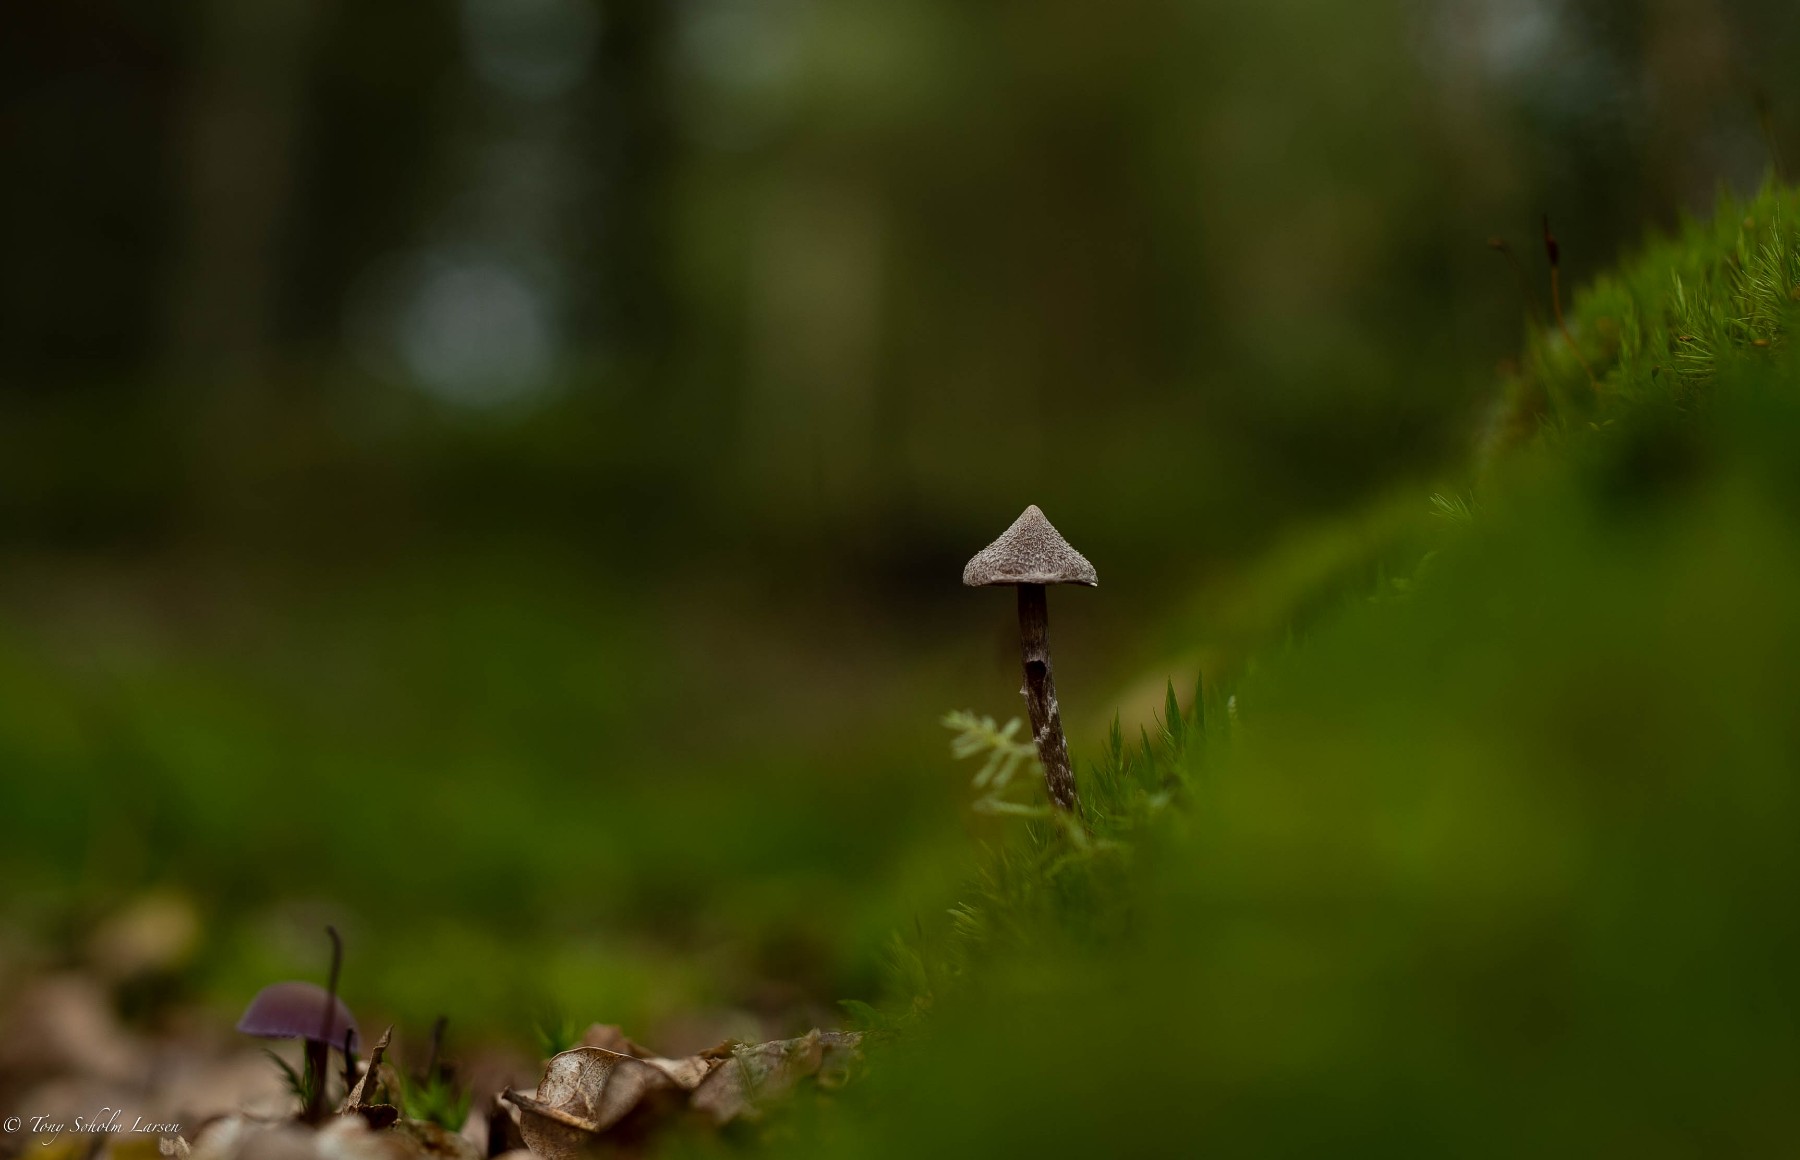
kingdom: Fungi
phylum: Basidiomycota
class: Agaricomycetes
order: Agaricales
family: Cortinariaceae
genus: Cortinarius
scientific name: Cortinarius
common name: pelargonie-slørhat
